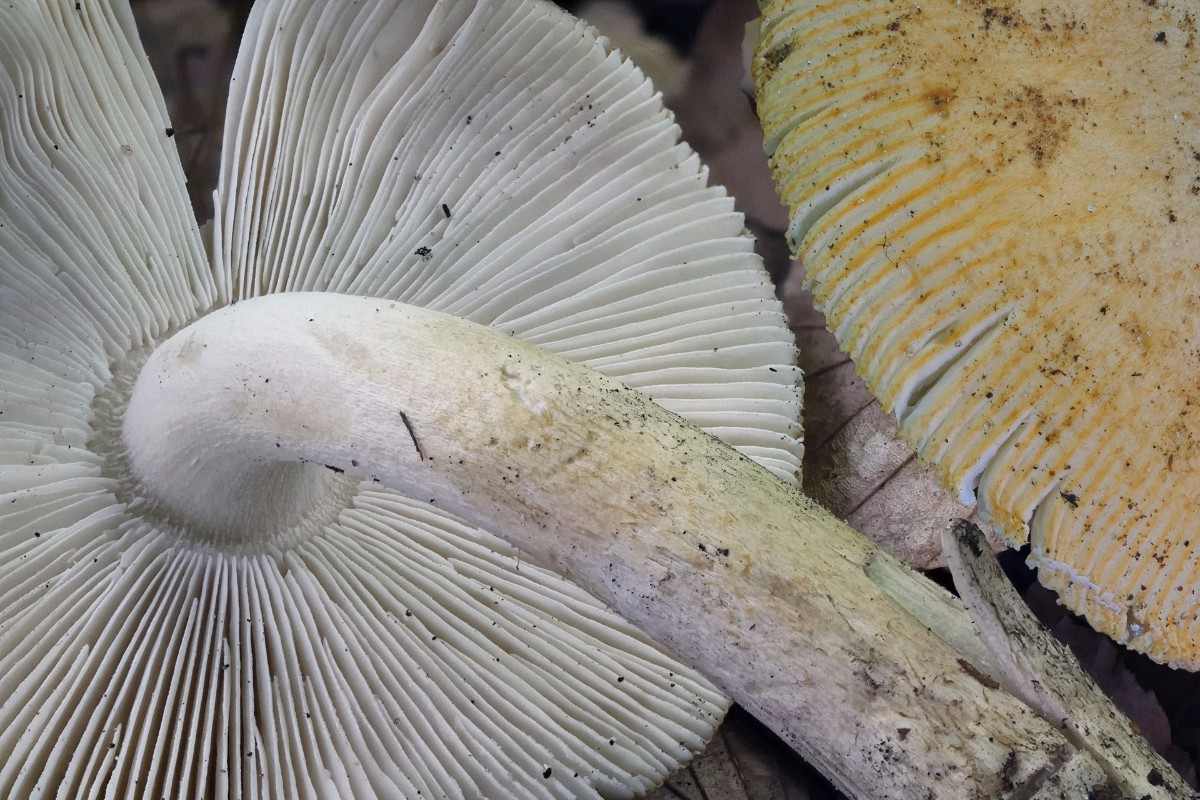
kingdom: Fungi
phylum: Basidiomycota
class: Agaricomycetes
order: Agaricales
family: Amanitaceae
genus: Amanita
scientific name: Amanita contui
